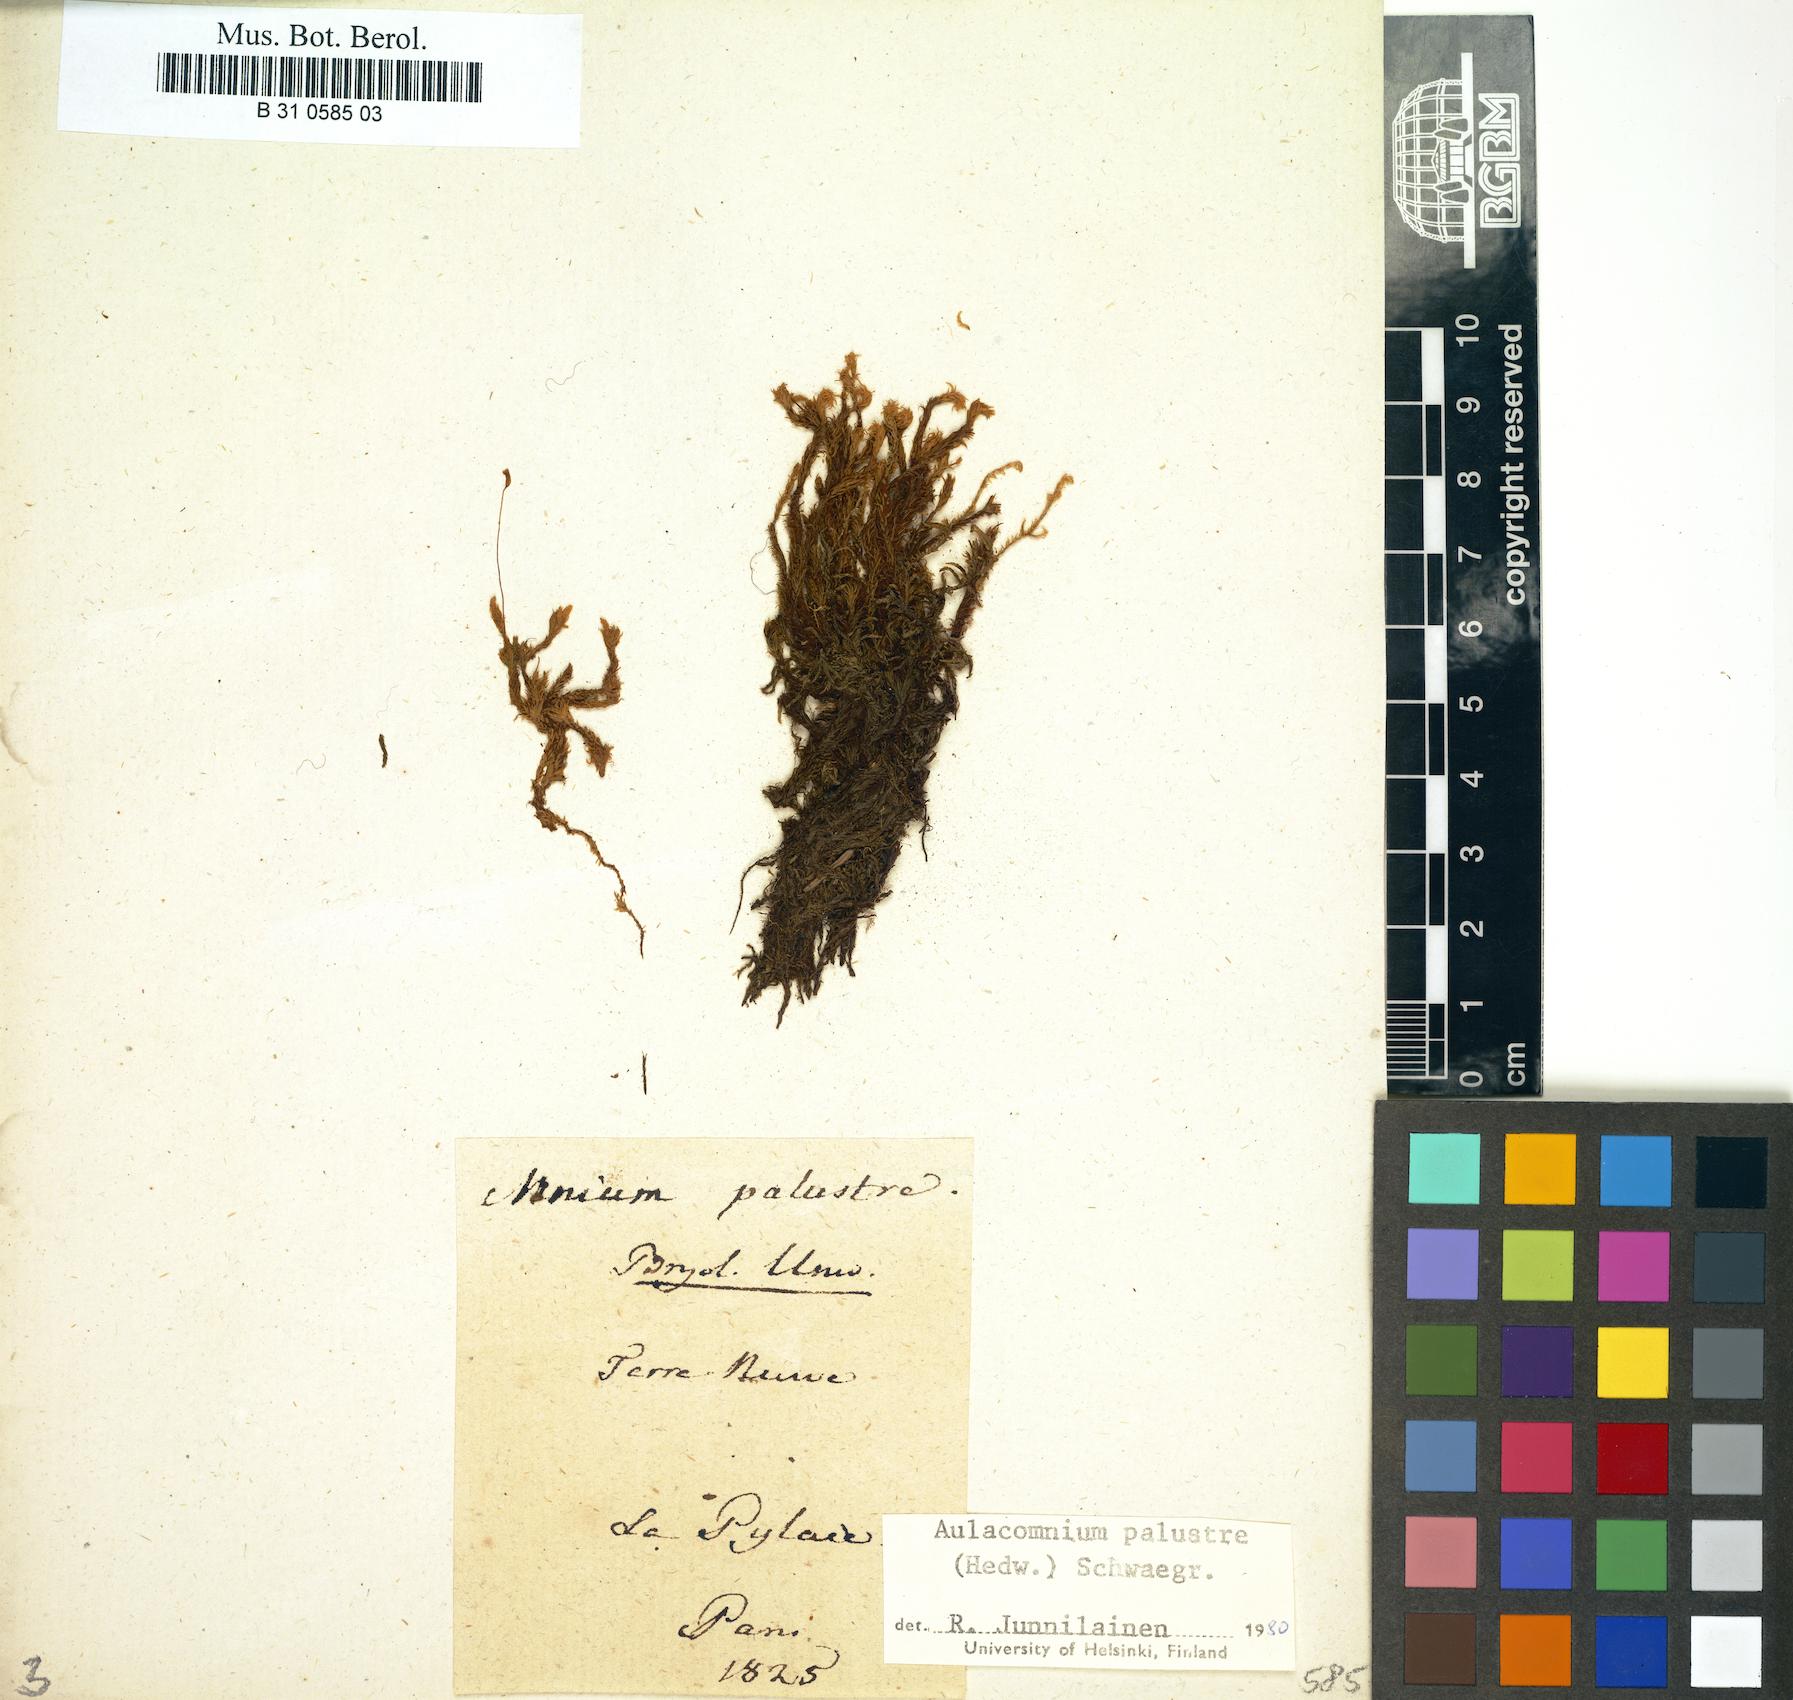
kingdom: Plantae
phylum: Bryophyta
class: Bryopsida
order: Aulacomniales
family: Aulacomniaceae
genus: Aulacomnium
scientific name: Aulacomnium palustre
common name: Bog groove-moss
